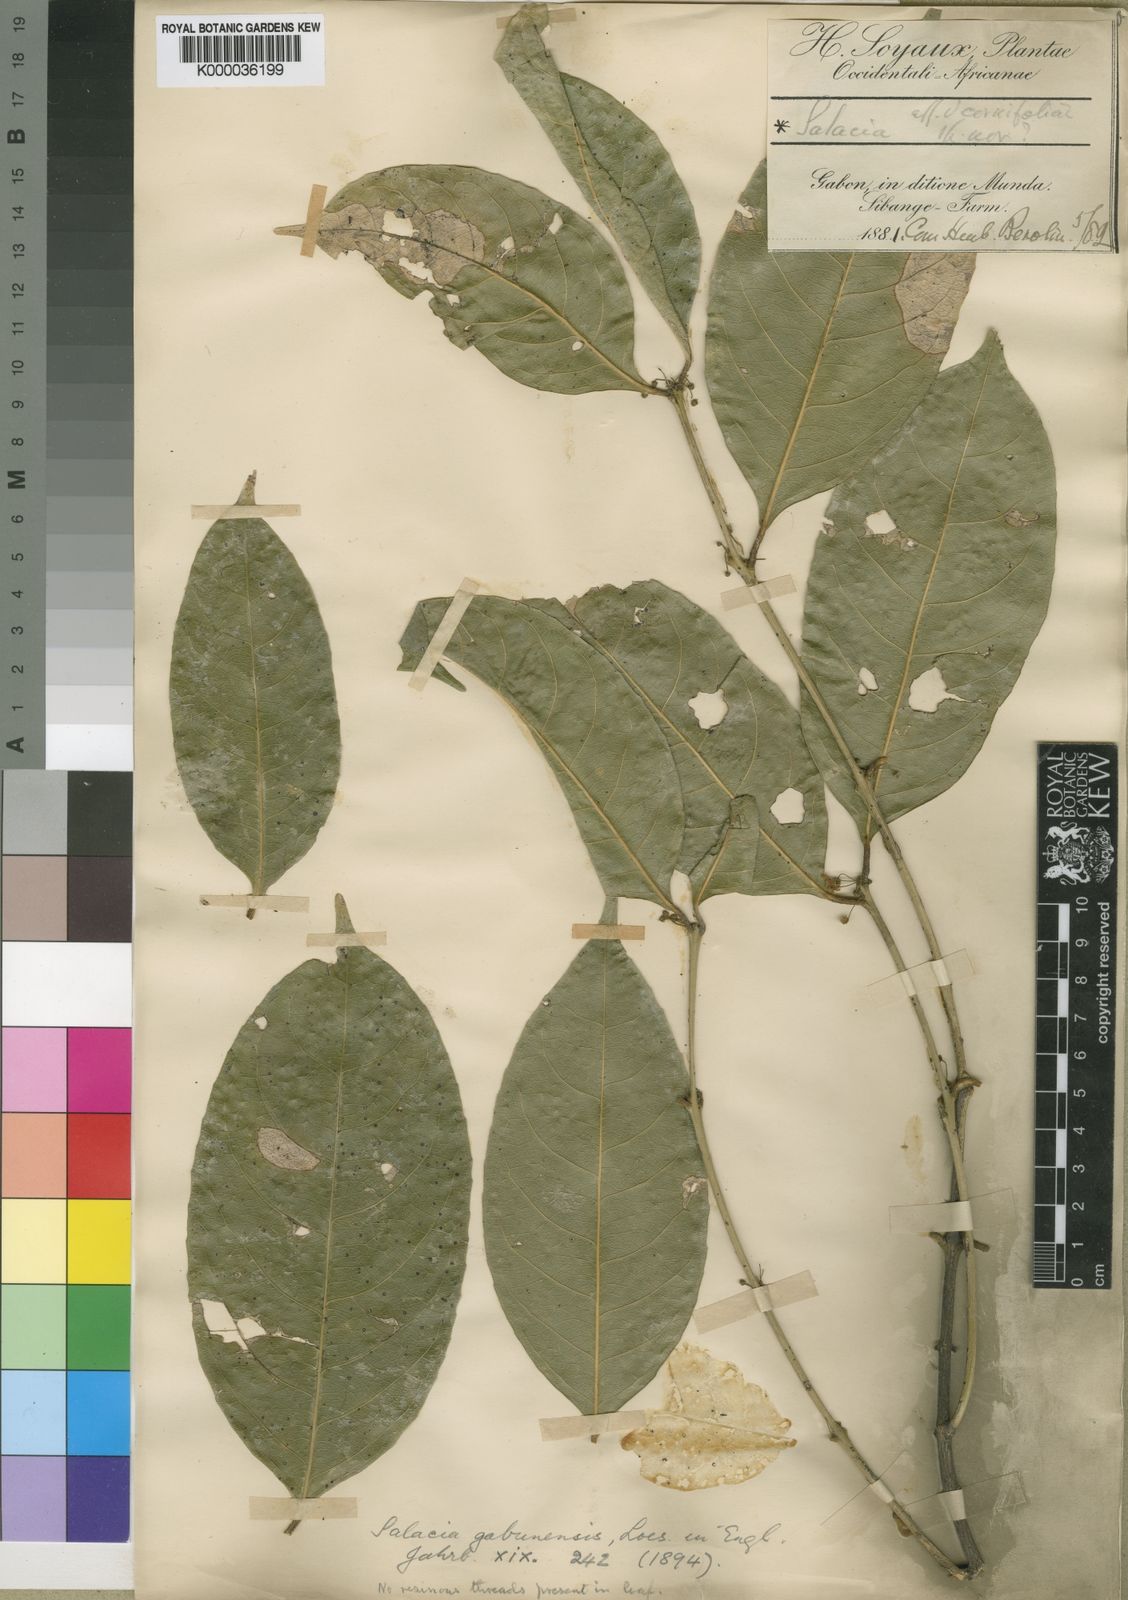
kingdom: Plantae
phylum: Tracheophyta
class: Magnoliopsida
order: Celastrales
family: Celastraceae
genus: Salacia
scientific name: Salacia gabunensis
